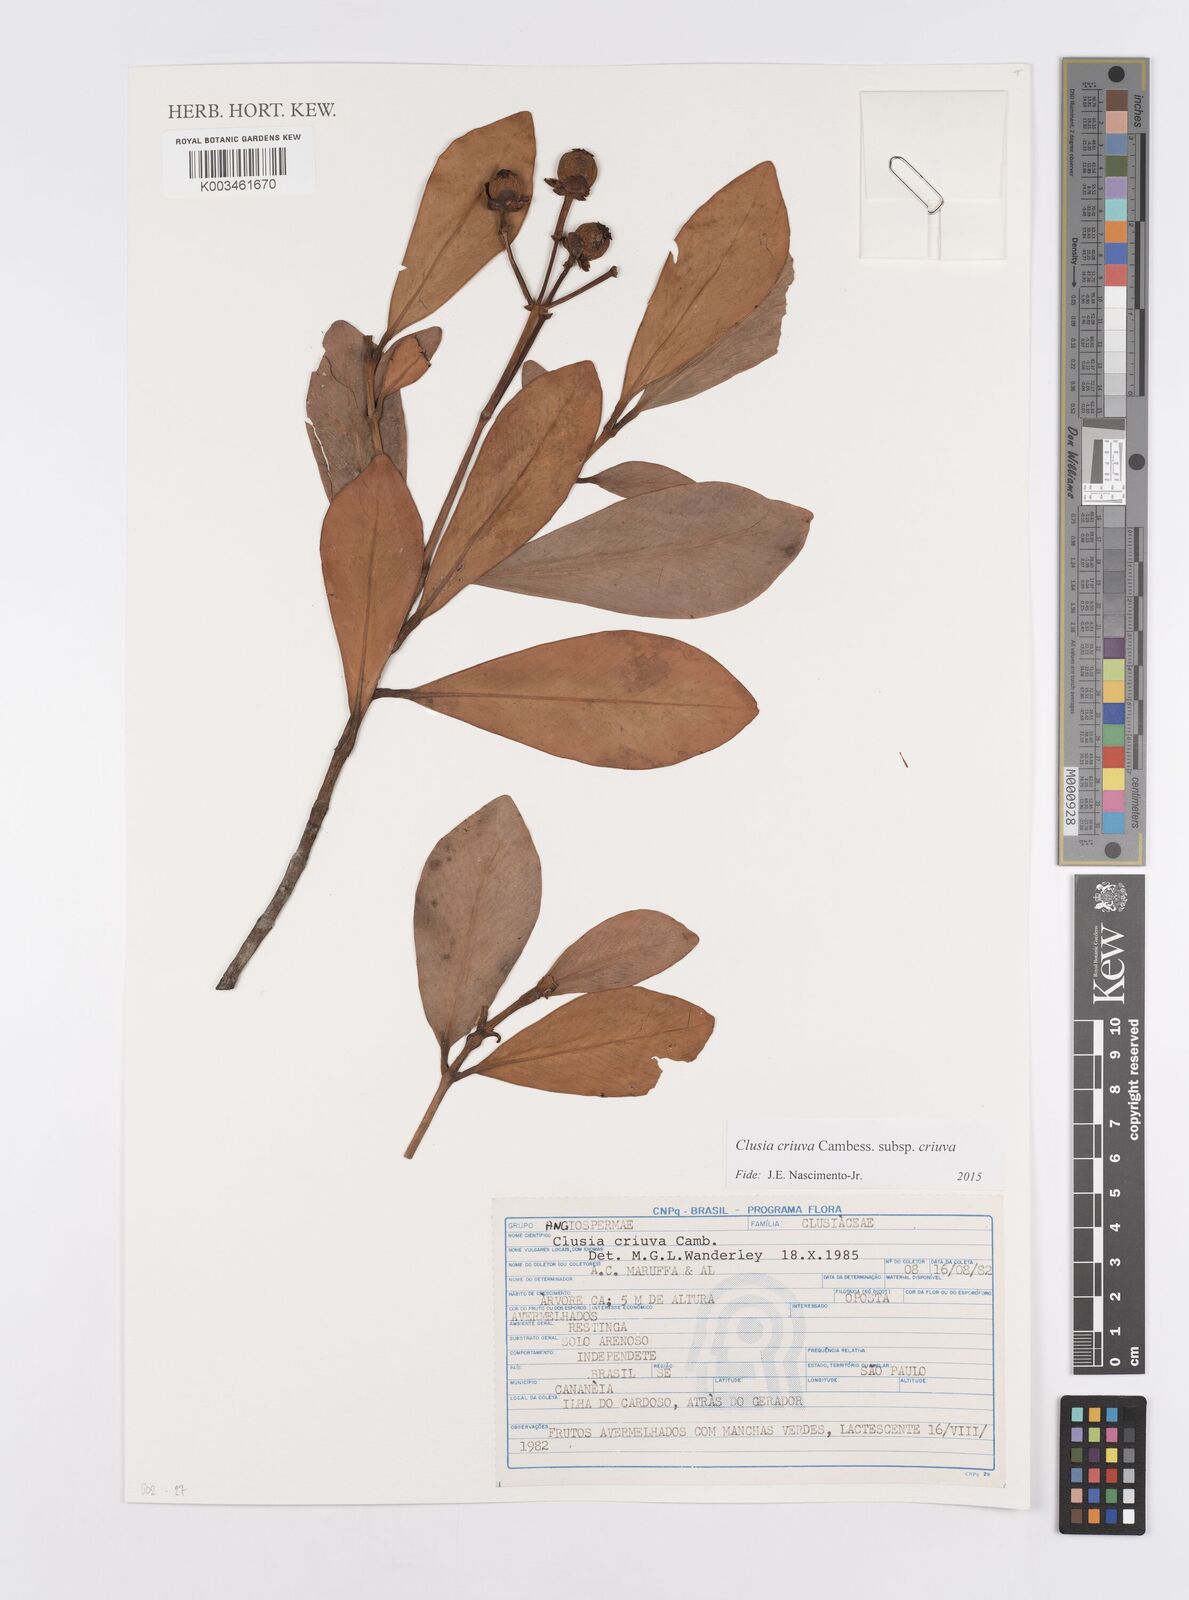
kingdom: Plantae
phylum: Tracheophyta
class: Magnoliopsida
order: Malpighiales
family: Clusiaceae
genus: Clusia
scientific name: Clusia criuva
